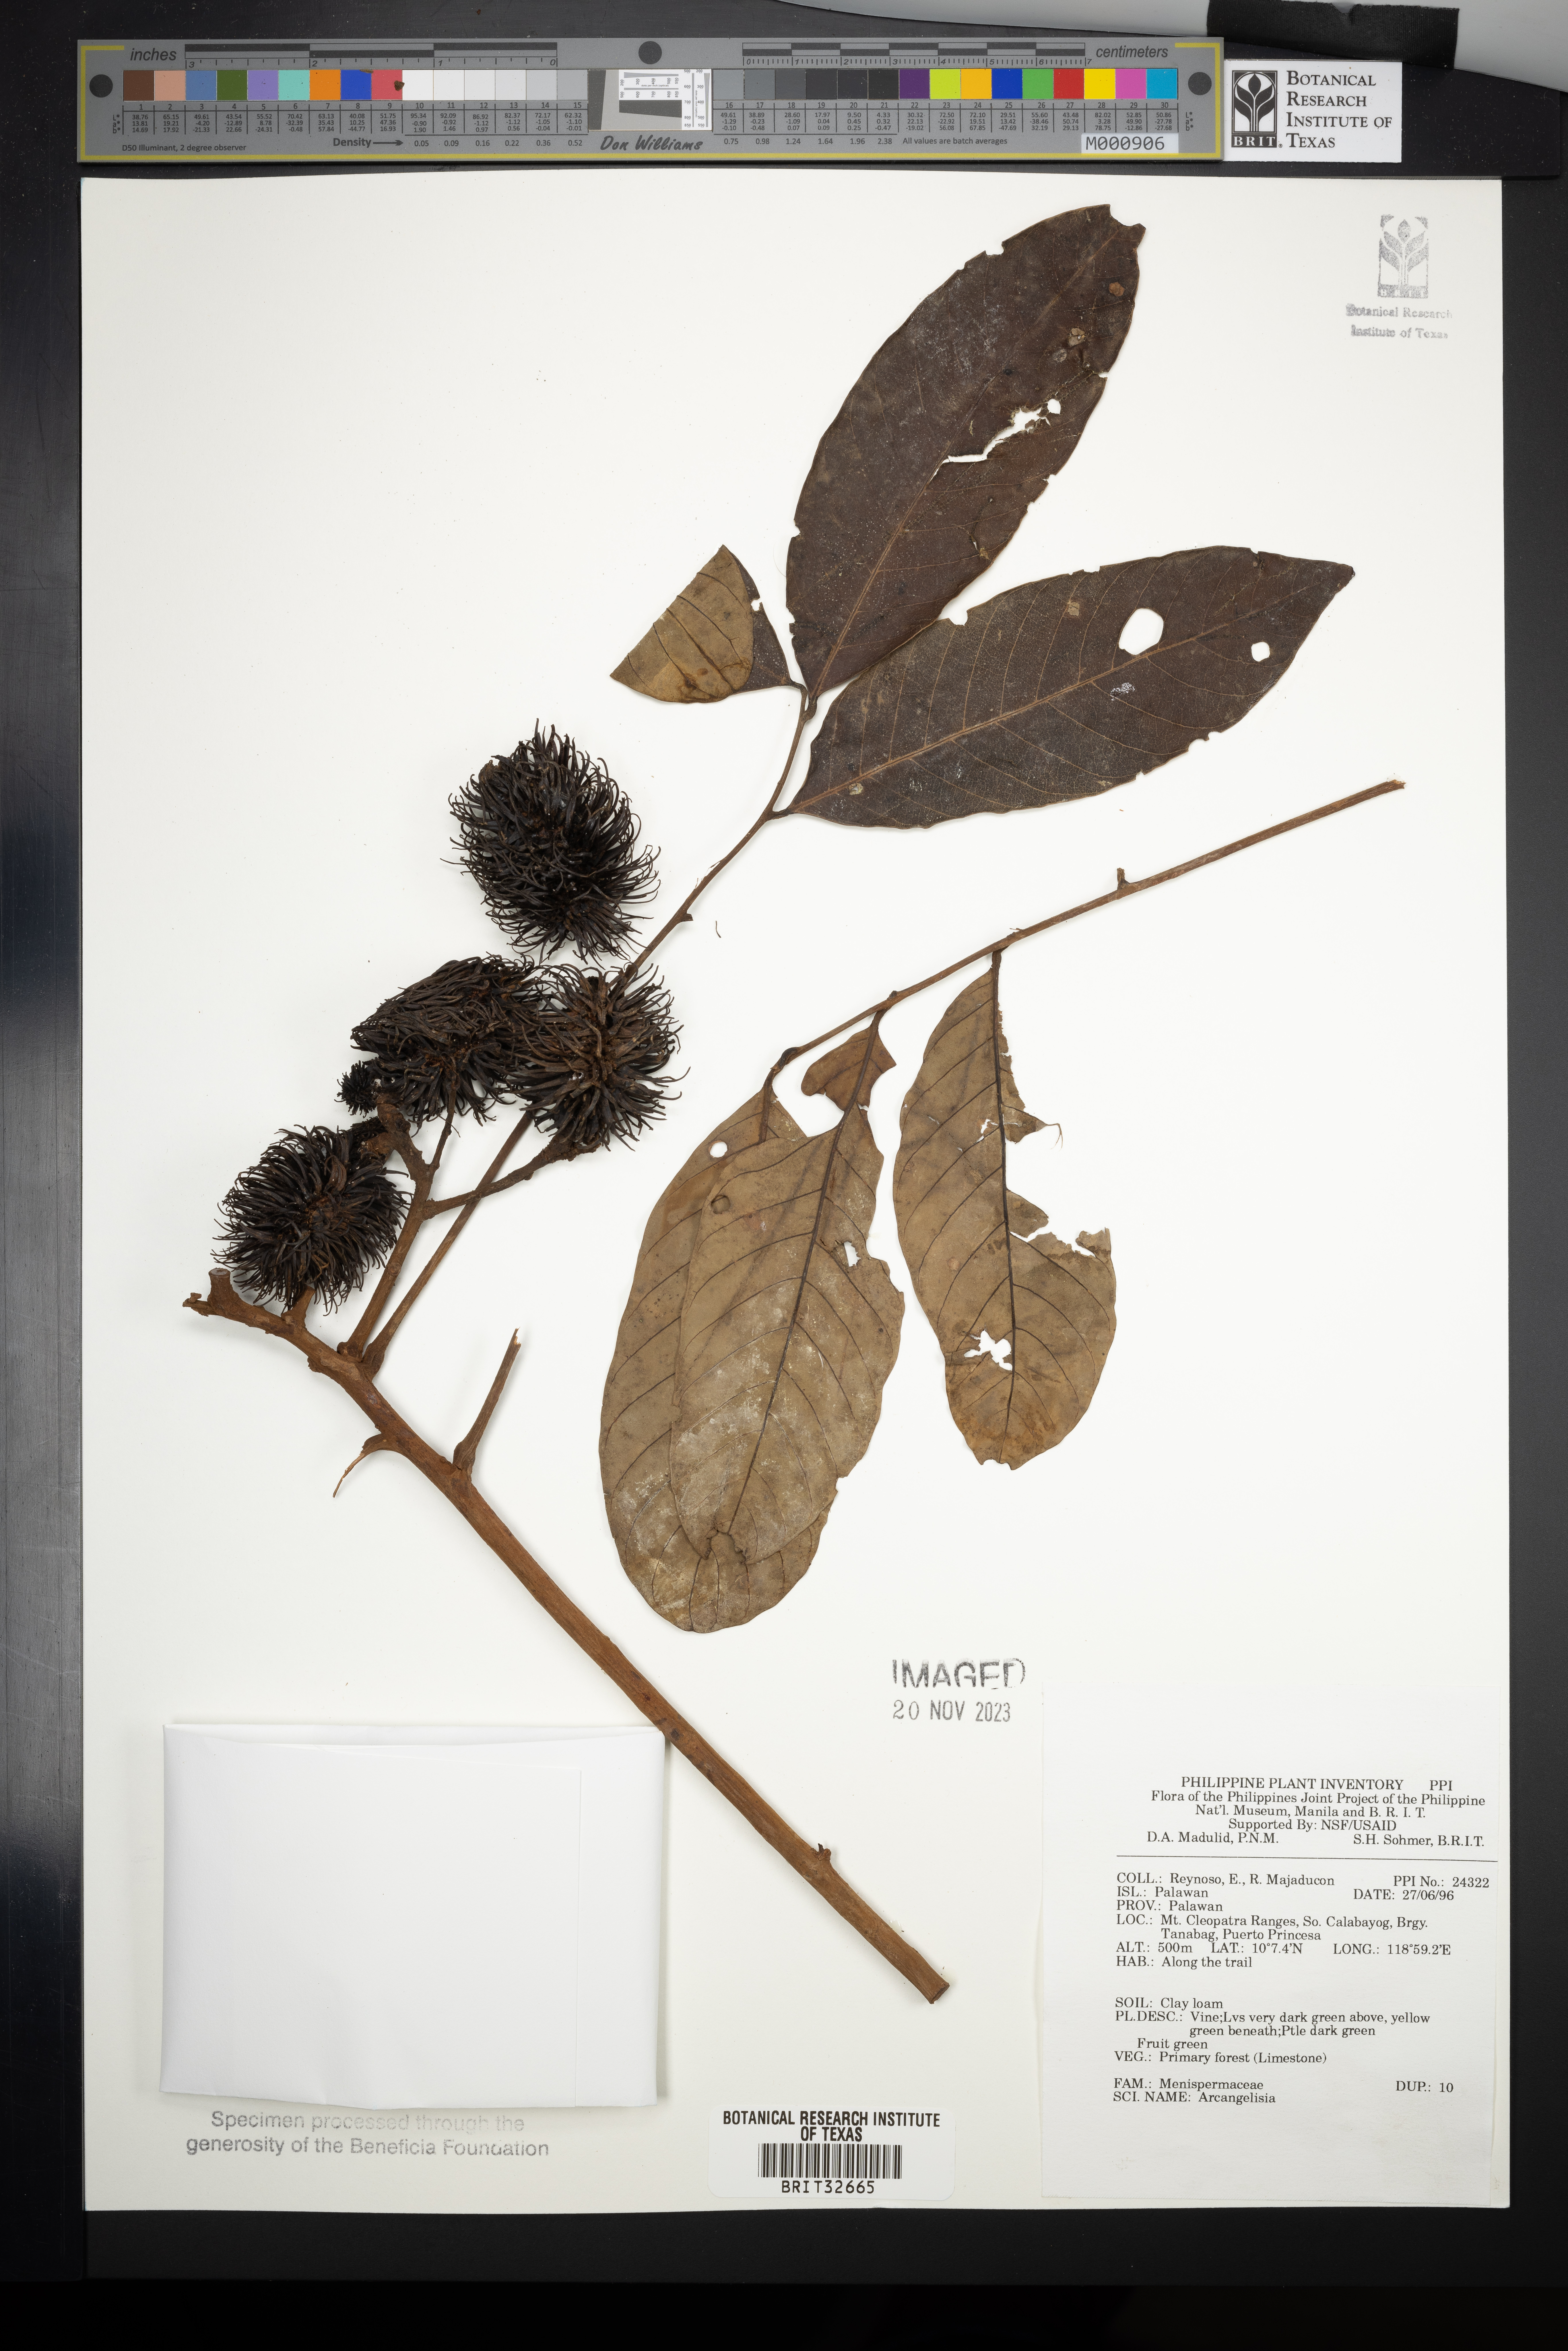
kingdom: Plantae
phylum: Tracheophyta
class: Magnoliopsida
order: Ranunculales
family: Menispermaceae
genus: Arcangelisia
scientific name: Arcangelisia
